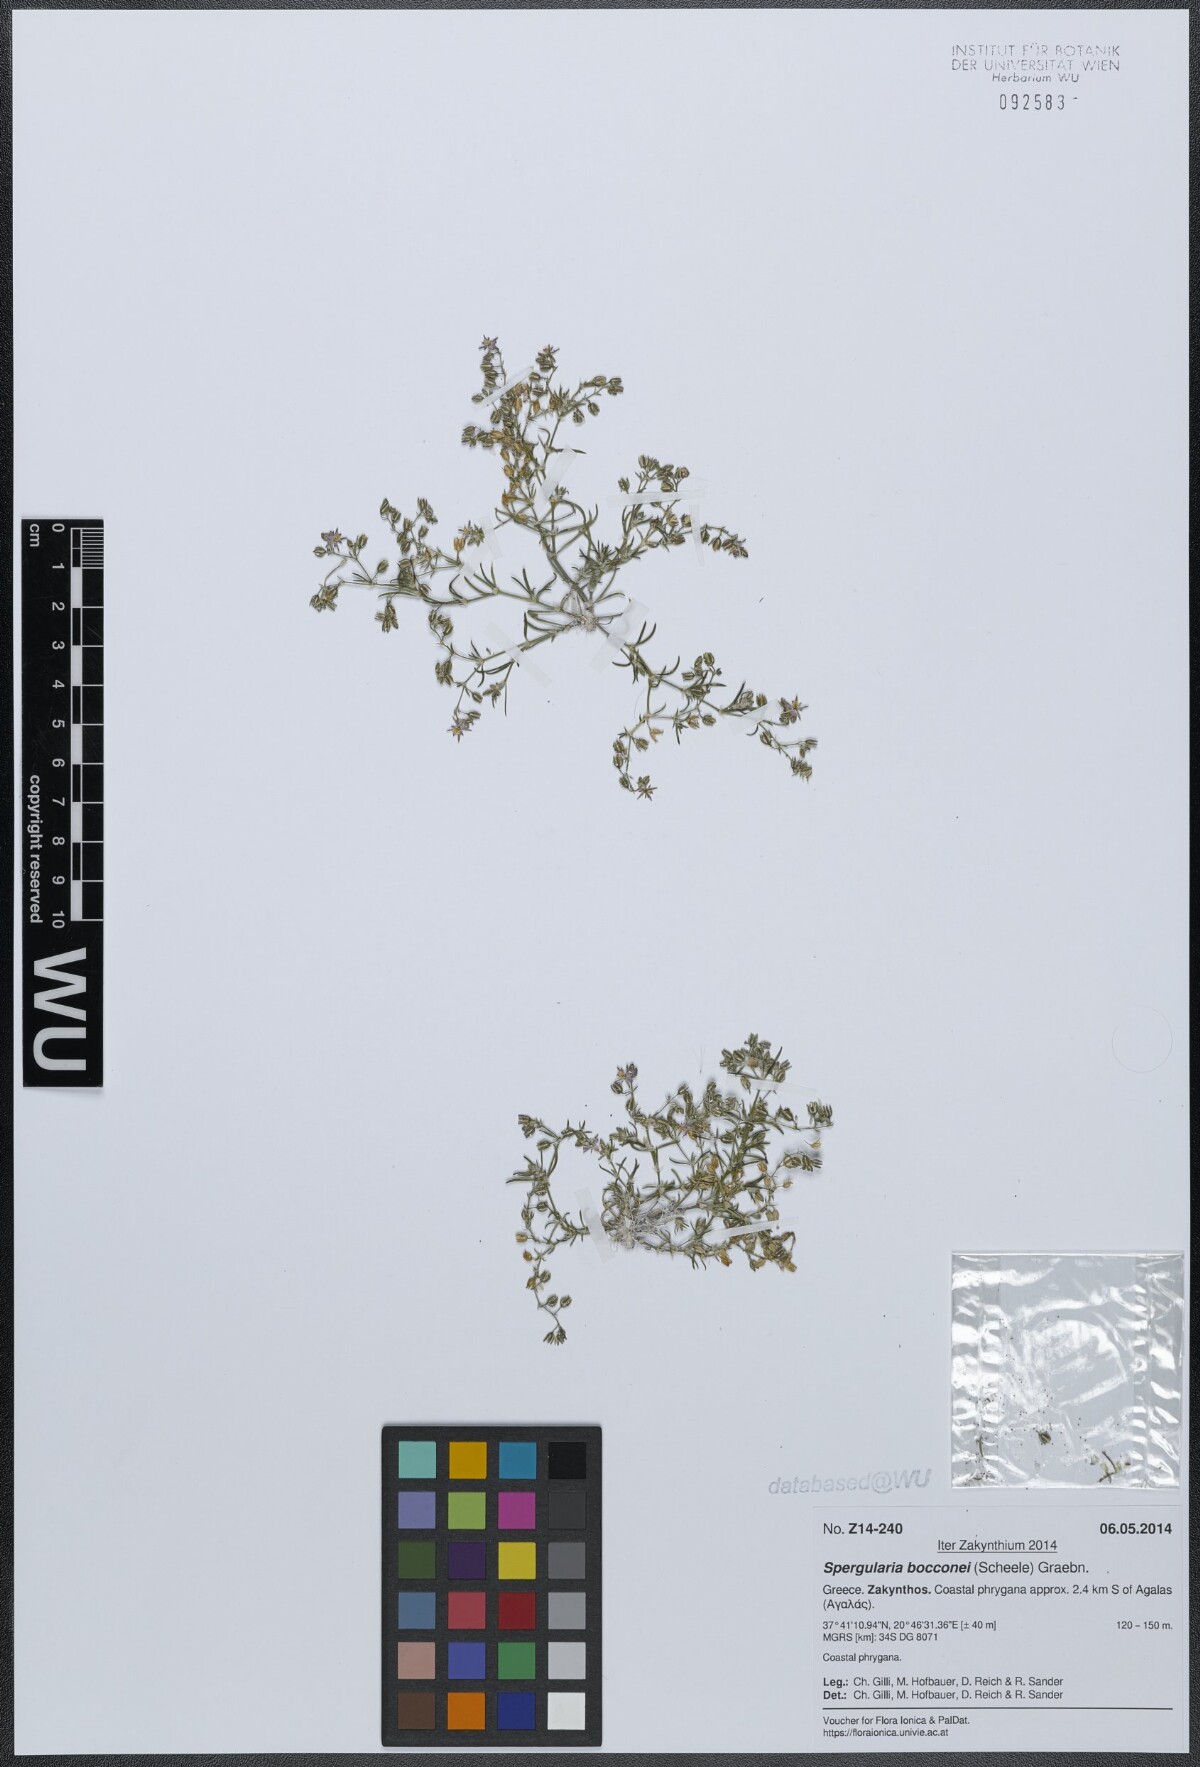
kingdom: Plantae
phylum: Tracheophyta
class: Magnoliopsida
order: Caryophyllales
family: Caryophyllaceae
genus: Spergularia
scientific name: Spergularia bocconei
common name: Greek sea-spurrey
